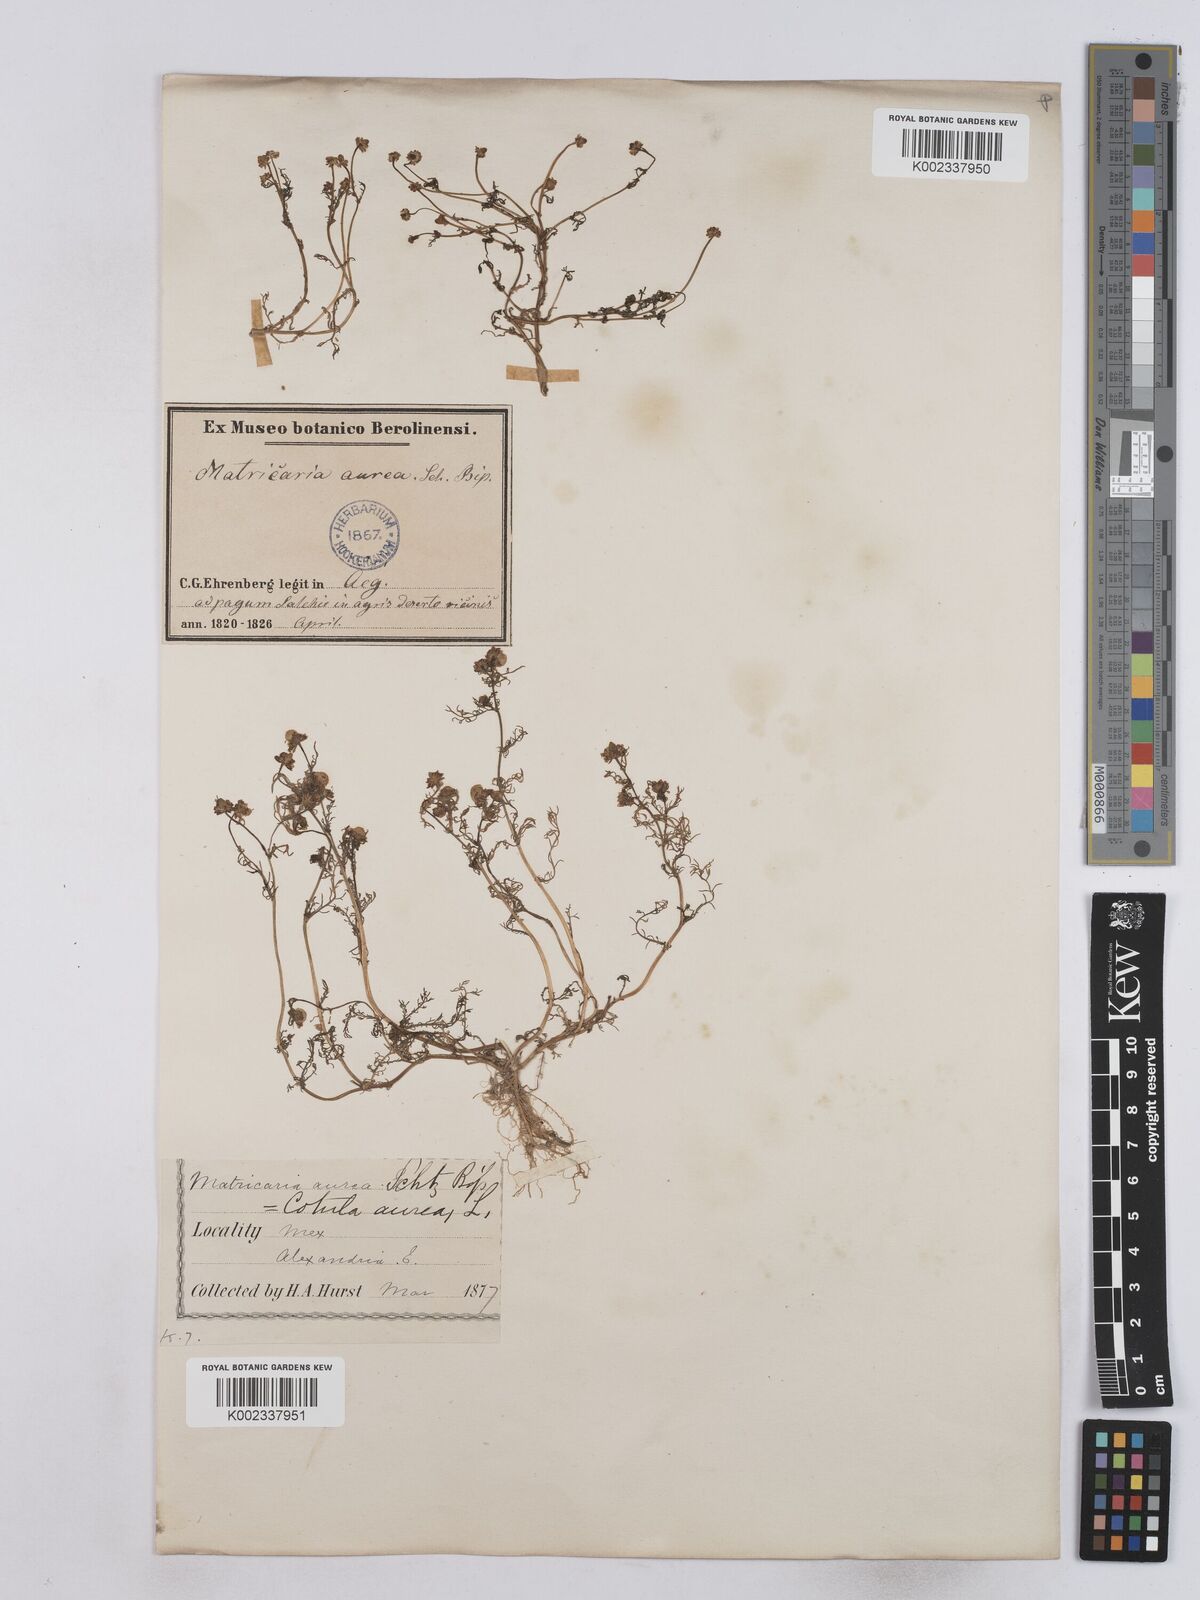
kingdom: Plantae
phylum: Tracheophyta
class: Magnoliopsida
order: Asterales
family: Asteraceae
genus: Matricaria
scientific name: Matricaria
